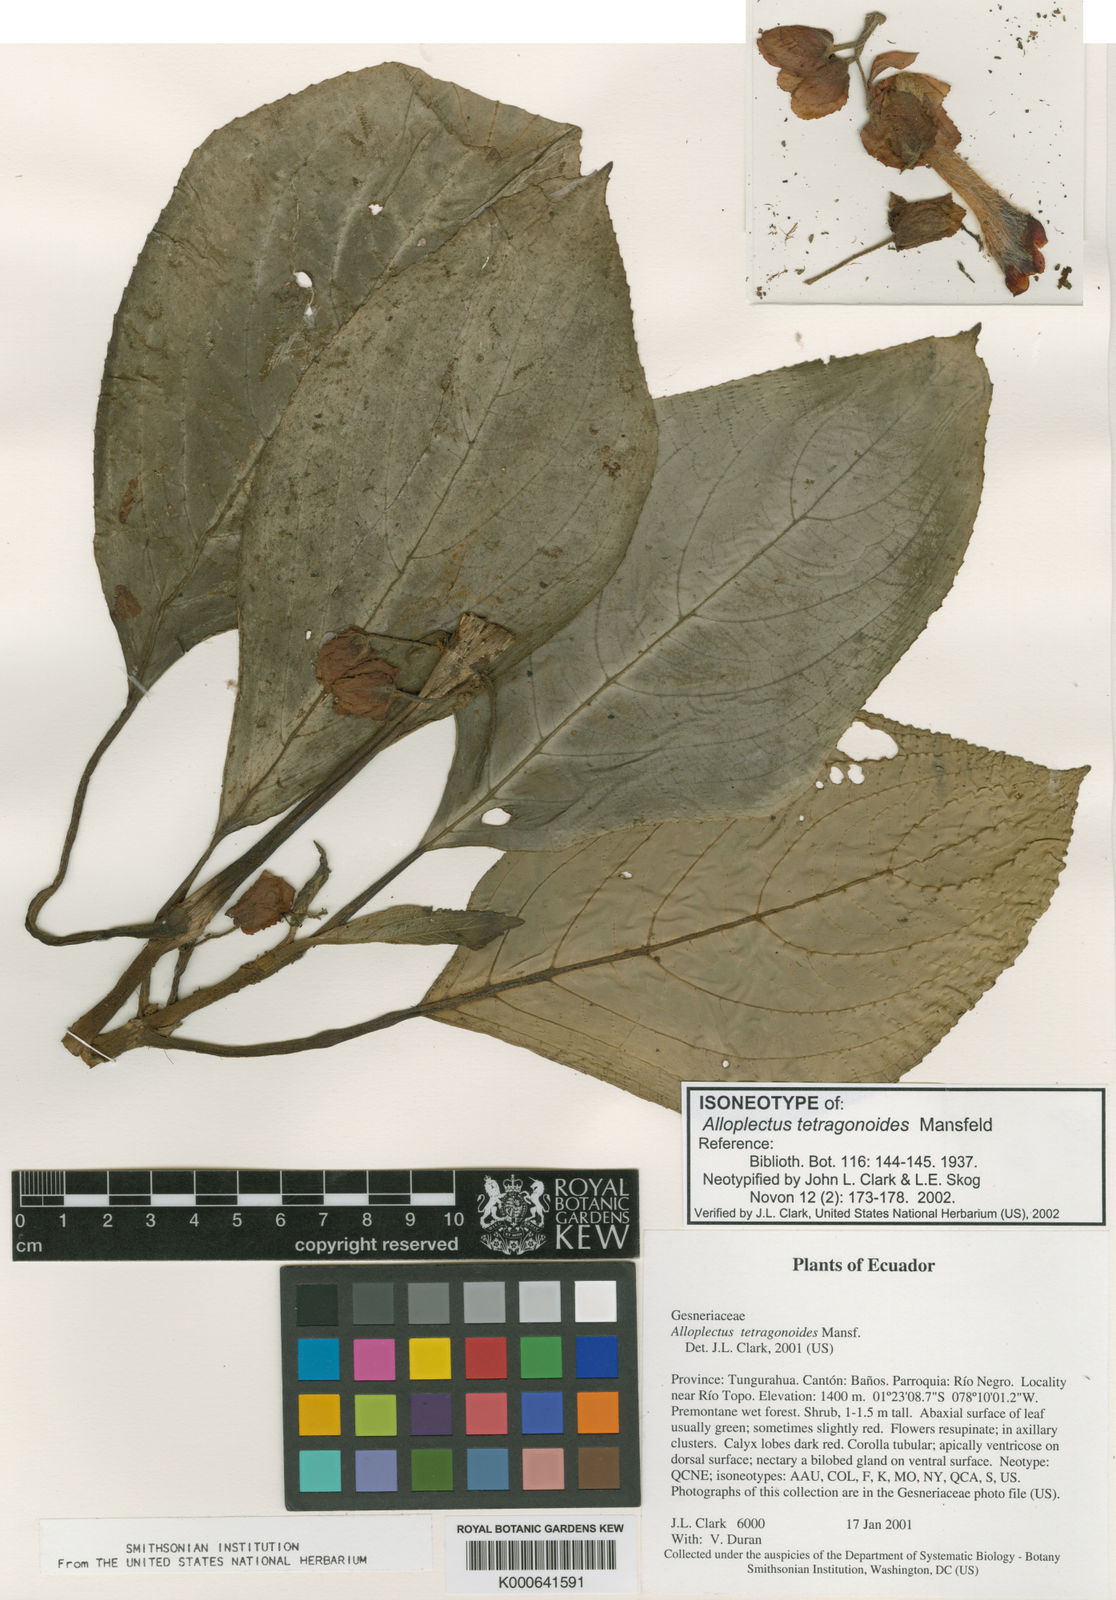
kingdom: Plantae
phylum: Tracheophyta
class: Magnoliopsida
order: Lamiales
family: Gesneriaceae
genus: Glossoloma
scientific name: Glossoloma tetragonoides
